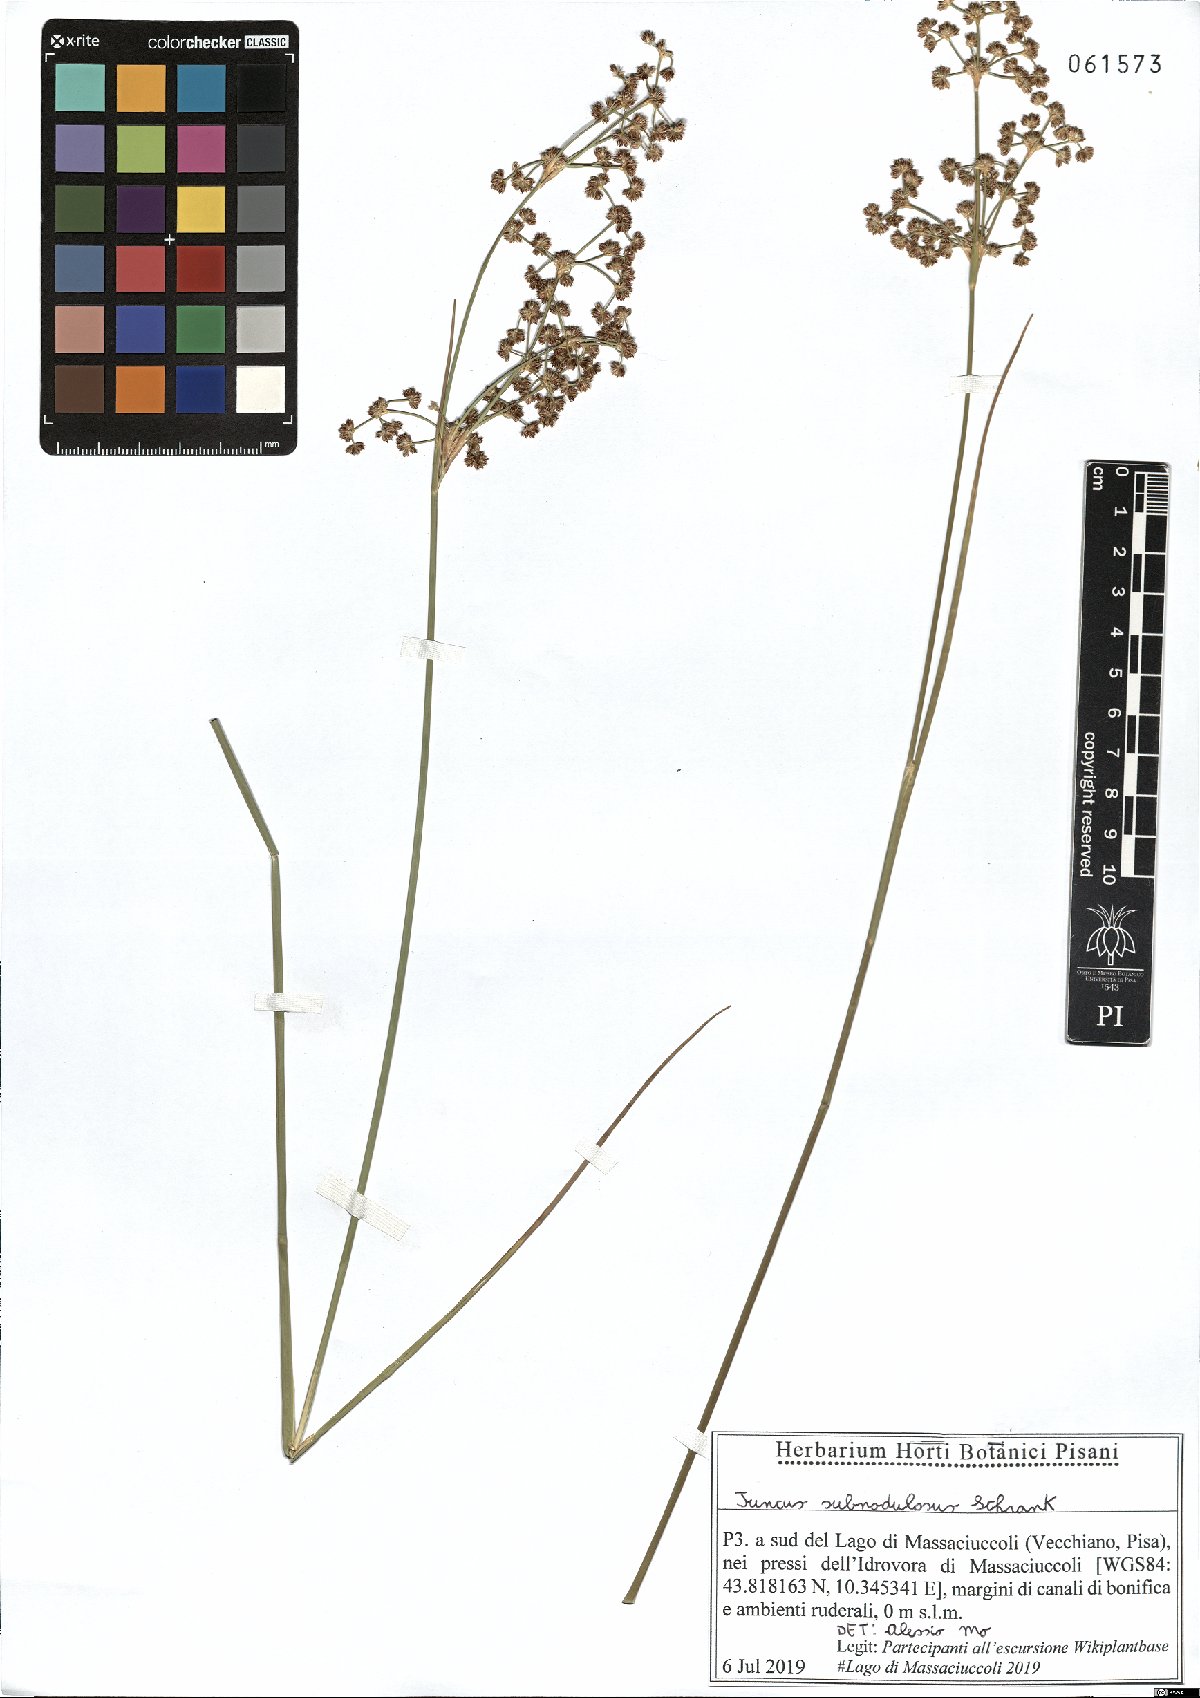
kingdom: Plantae
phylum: Tracheophyta
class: Liliopsida
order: Poales
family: Juncaceae
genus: Juncus
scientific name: Juncus subnodulosus
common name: Blunt-flowered rush
